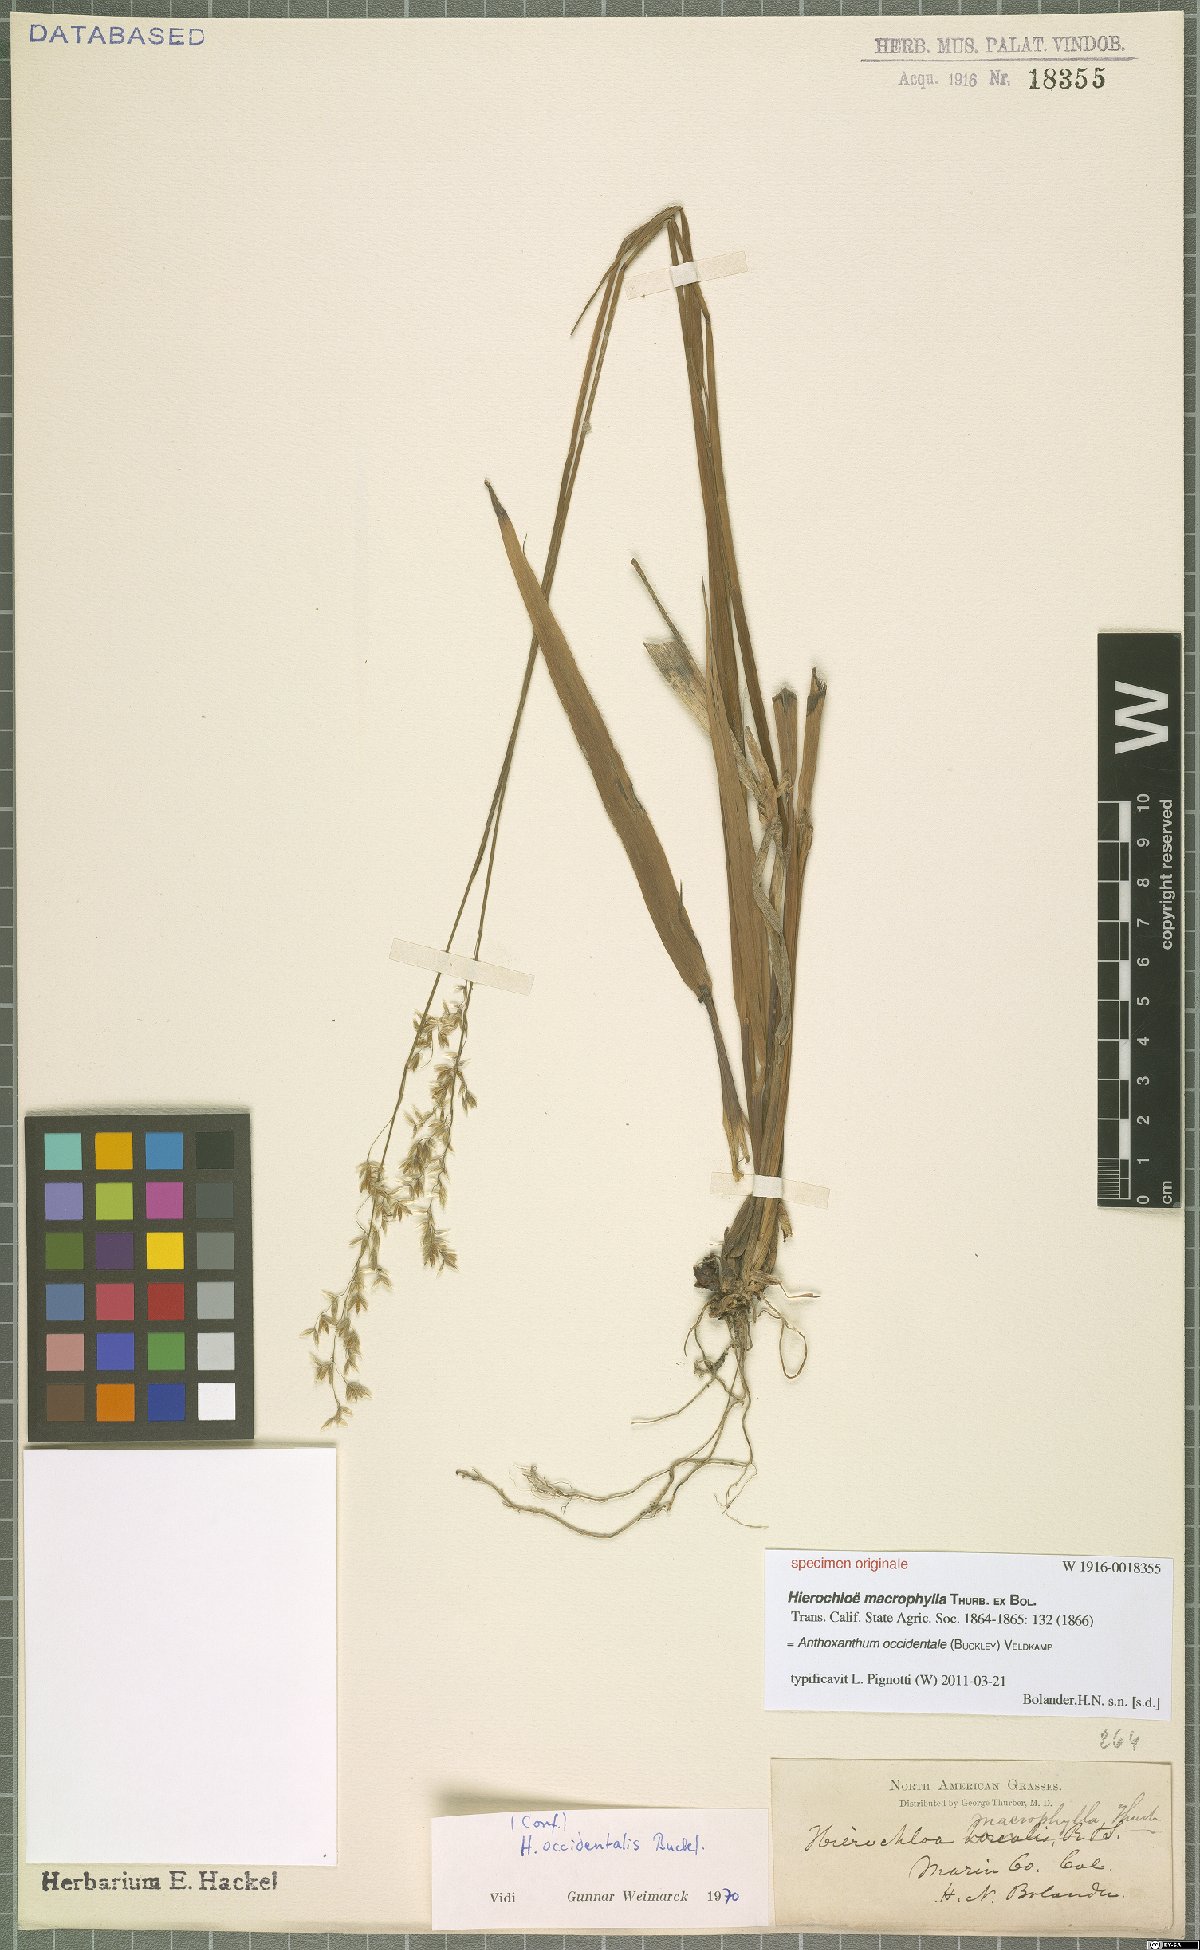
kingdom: Plantae
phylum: Tracheophyta
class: Liliopsida
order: Poales
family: Poaceae
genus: Anthoxanthum
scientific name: Anthoxanthum occidentale
